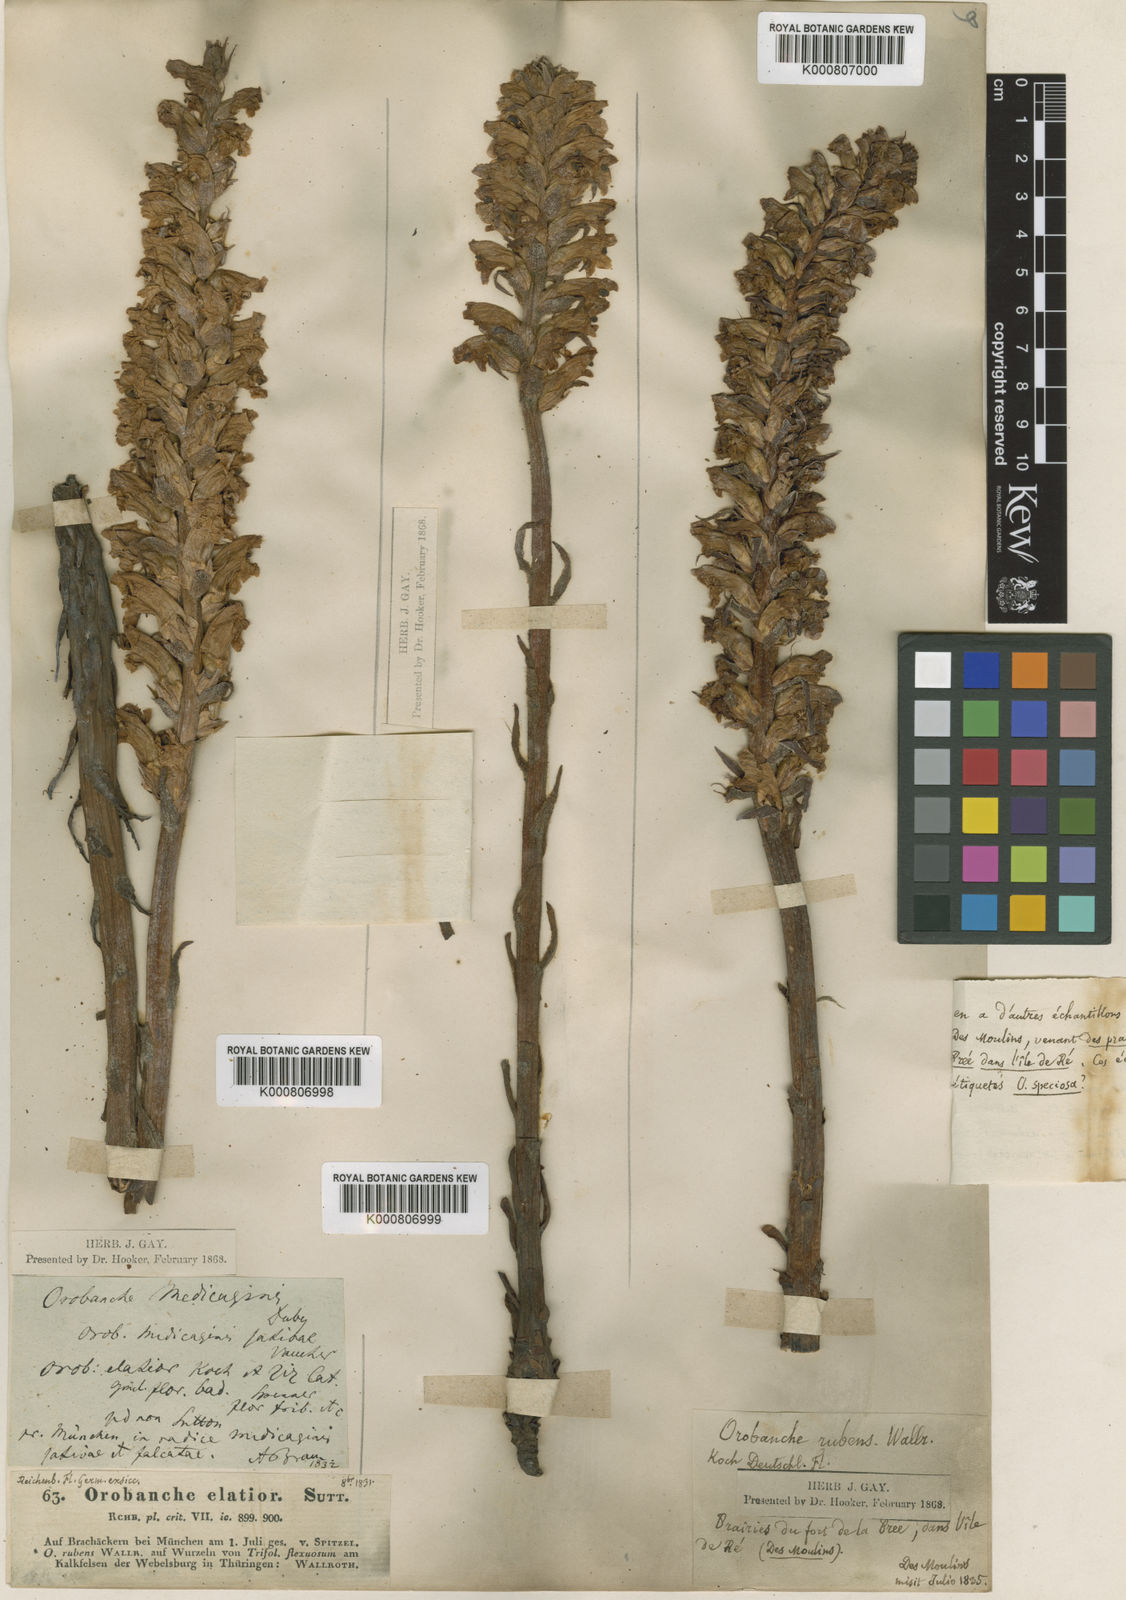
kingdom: Plantae
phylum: Tracheophyta
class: Magnoliopsida
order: Lamiales
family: Orobanchaceae
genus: Orobanche
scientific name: Orobanche lutea
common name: Yellow broomrape
